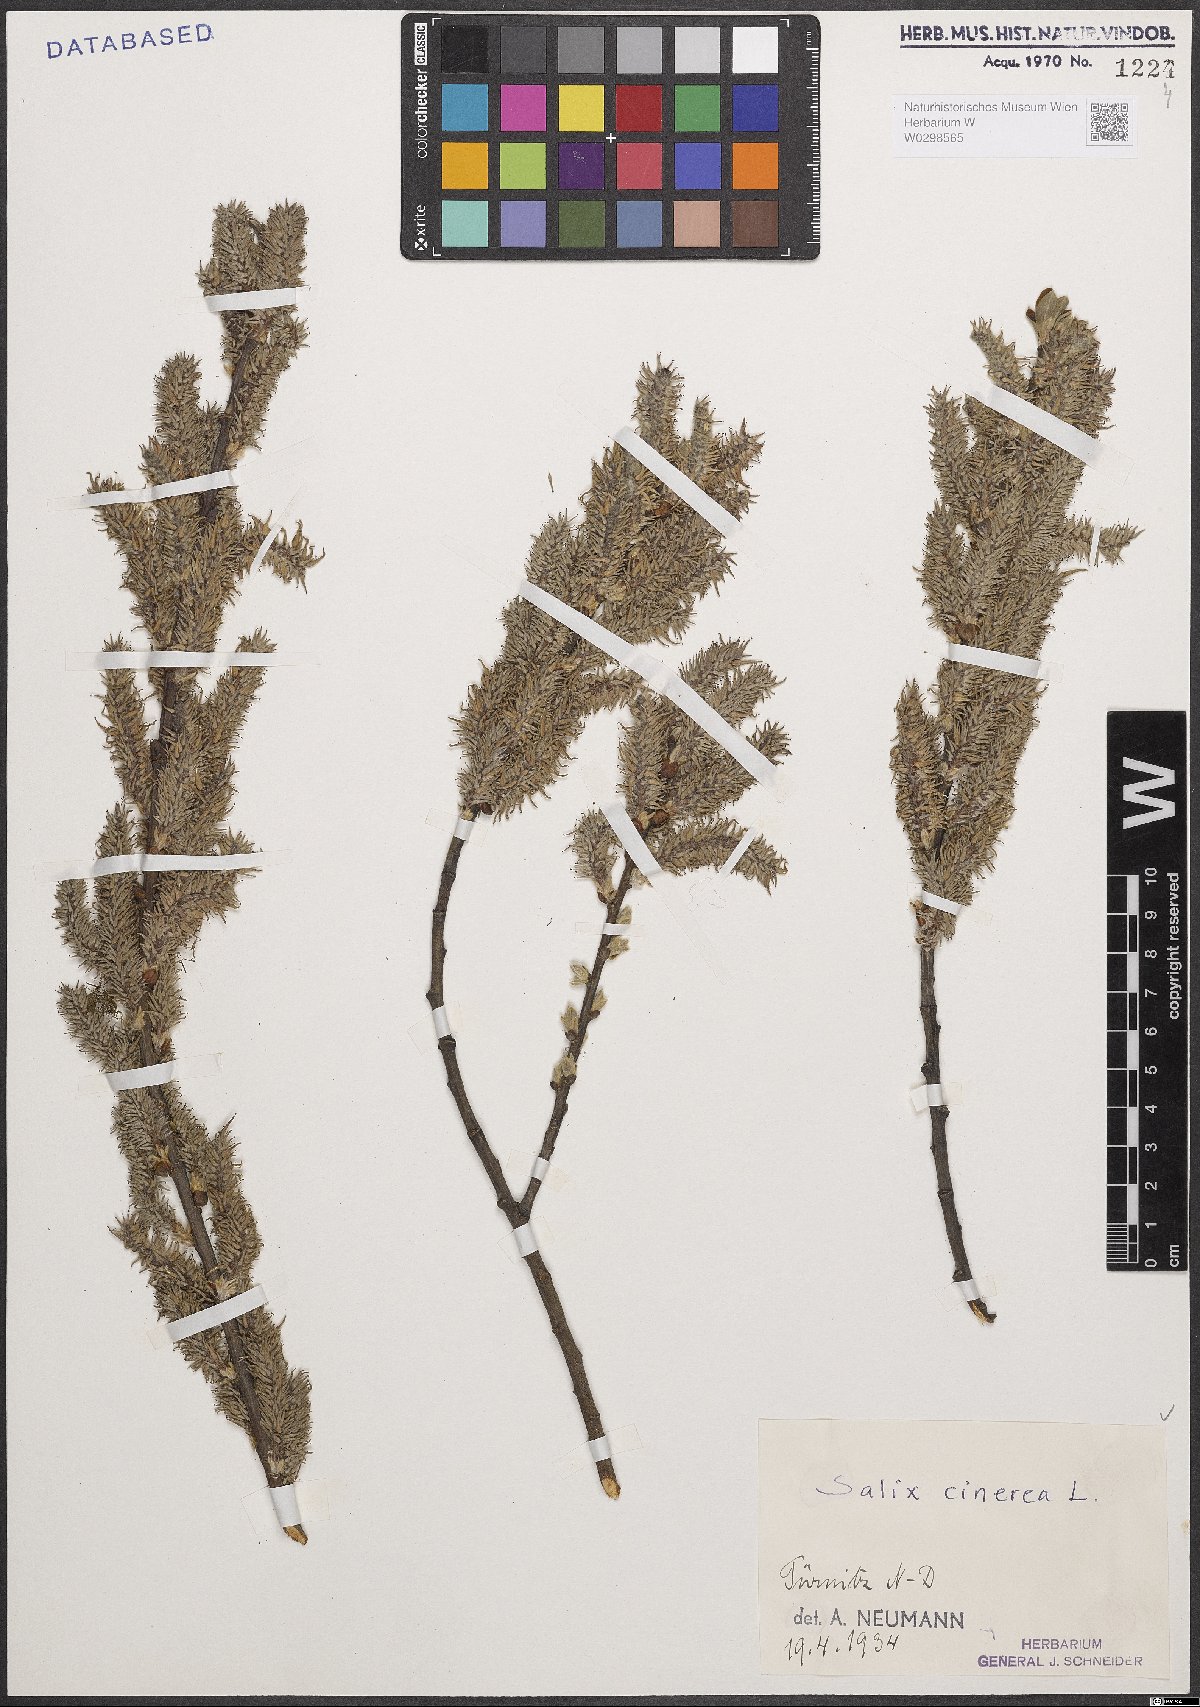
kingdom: Plantae
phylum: Tracheophyta
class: Magnoliopsida
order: Malpighiales
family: Salicaceae
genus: Salix
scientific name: Salix cinerea
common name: Common sallow
